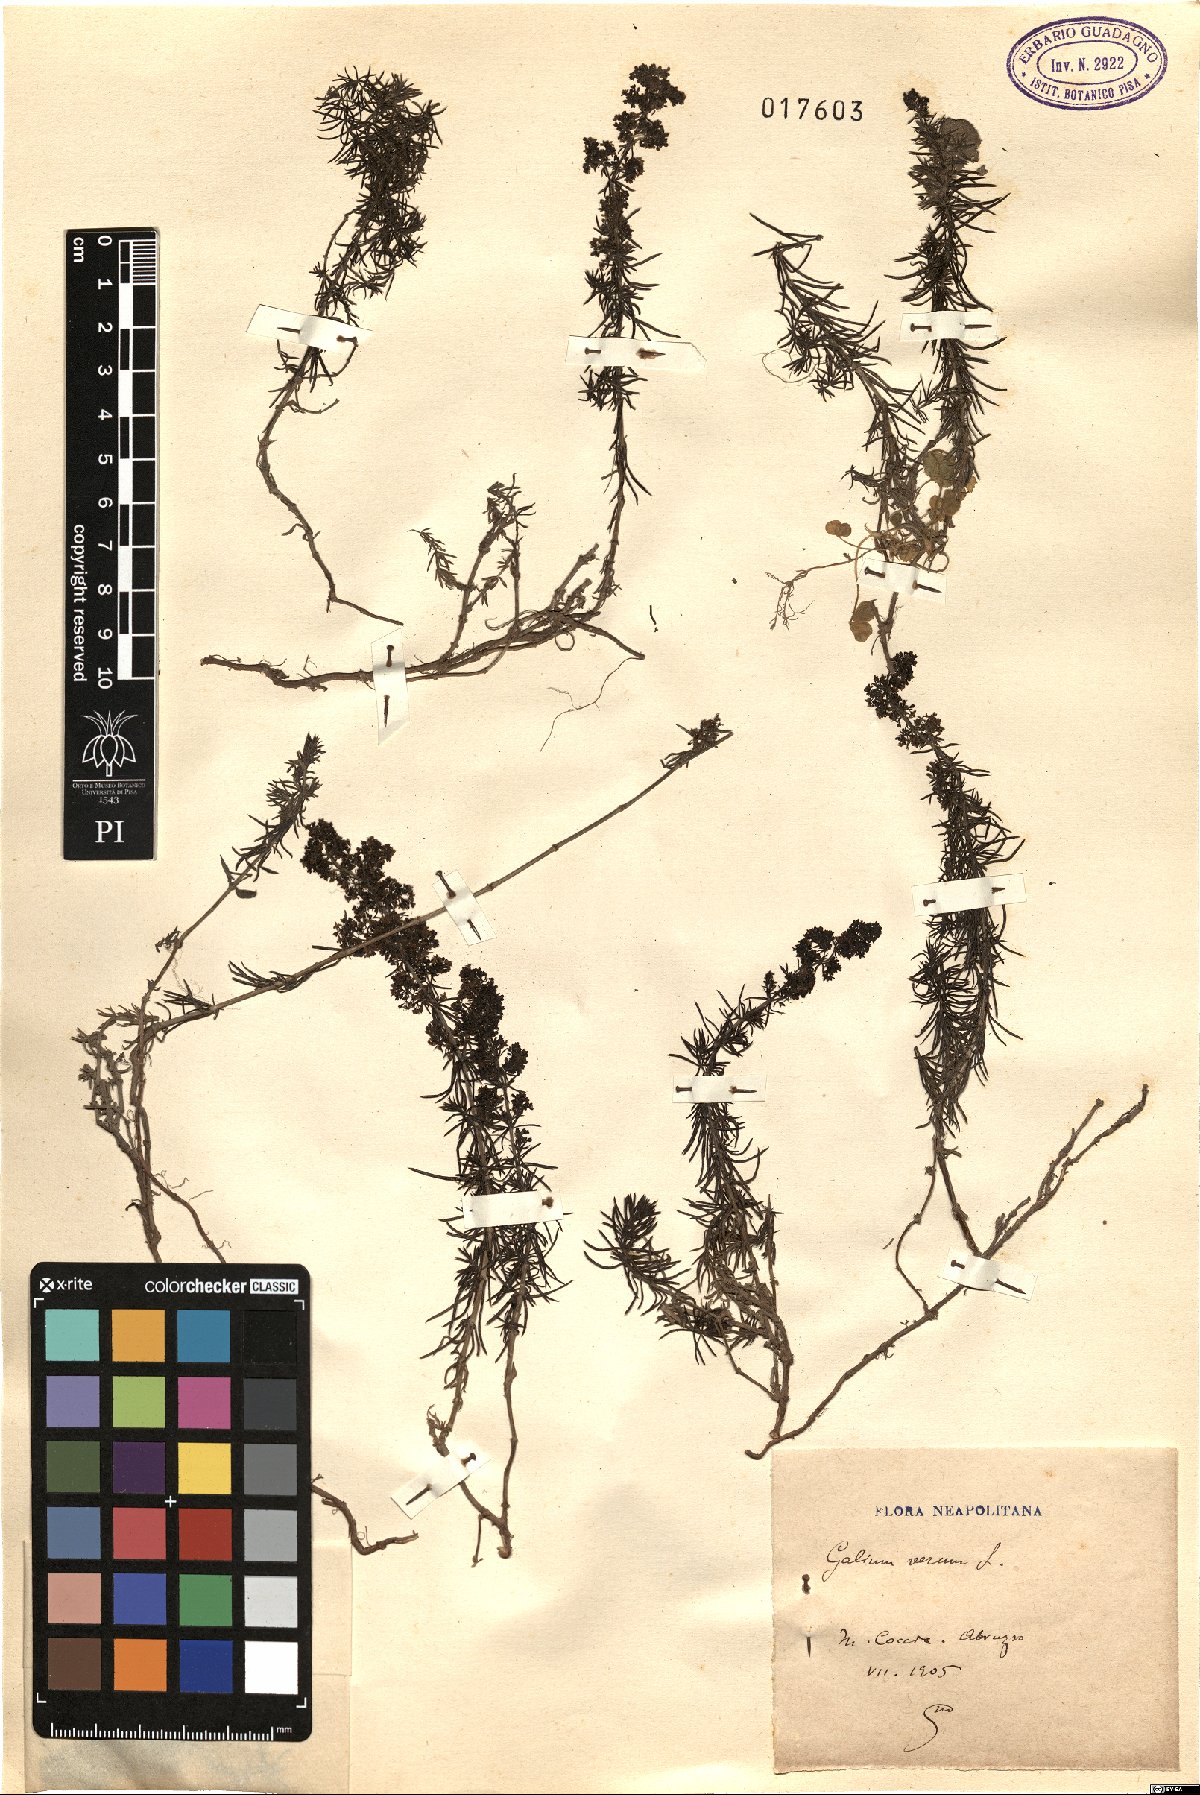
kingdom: Plantae
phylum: Tracheophyta
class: Magnoliopsida
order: Gentianales
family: Rubiaceae
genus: Galium
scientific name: Galium verum
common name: Lady's bedstraw
